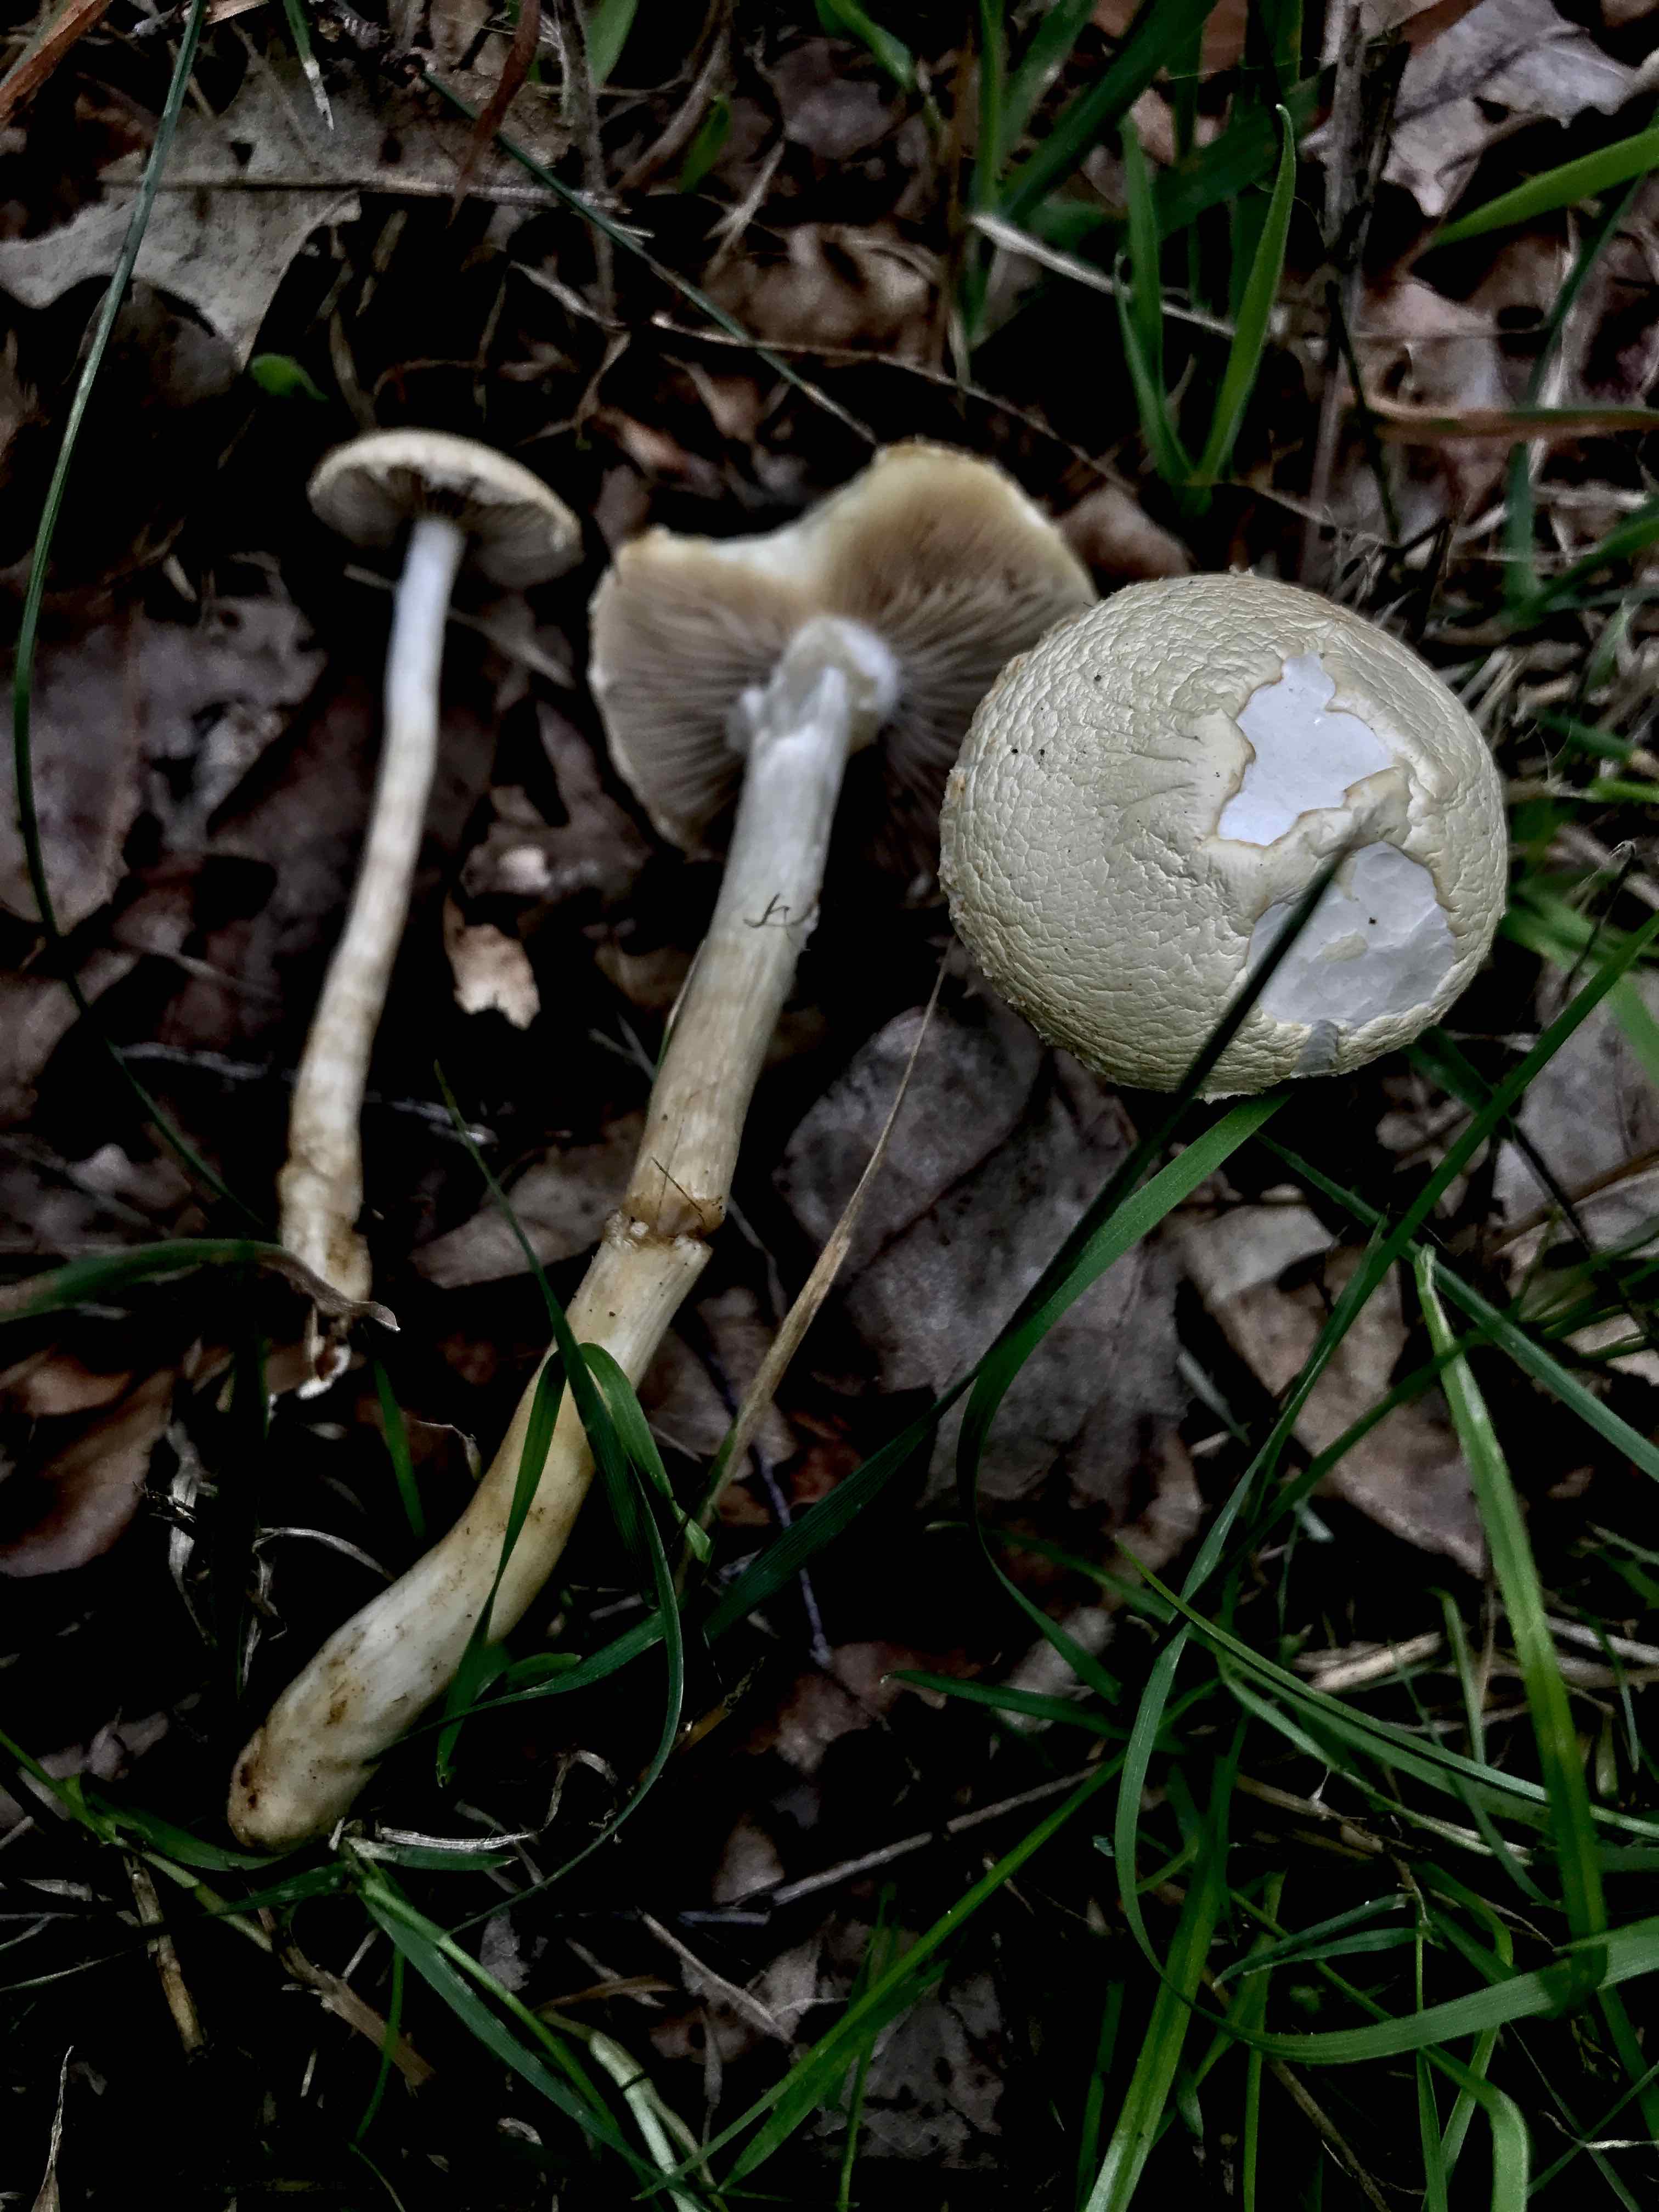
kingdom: Fungi
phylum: Basidiomycota
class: Agaricomycetes
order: Agaricales
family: Strophariaceae
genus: Agrocybe
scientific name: Agrocybe praecox
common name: tidlig agerhat
